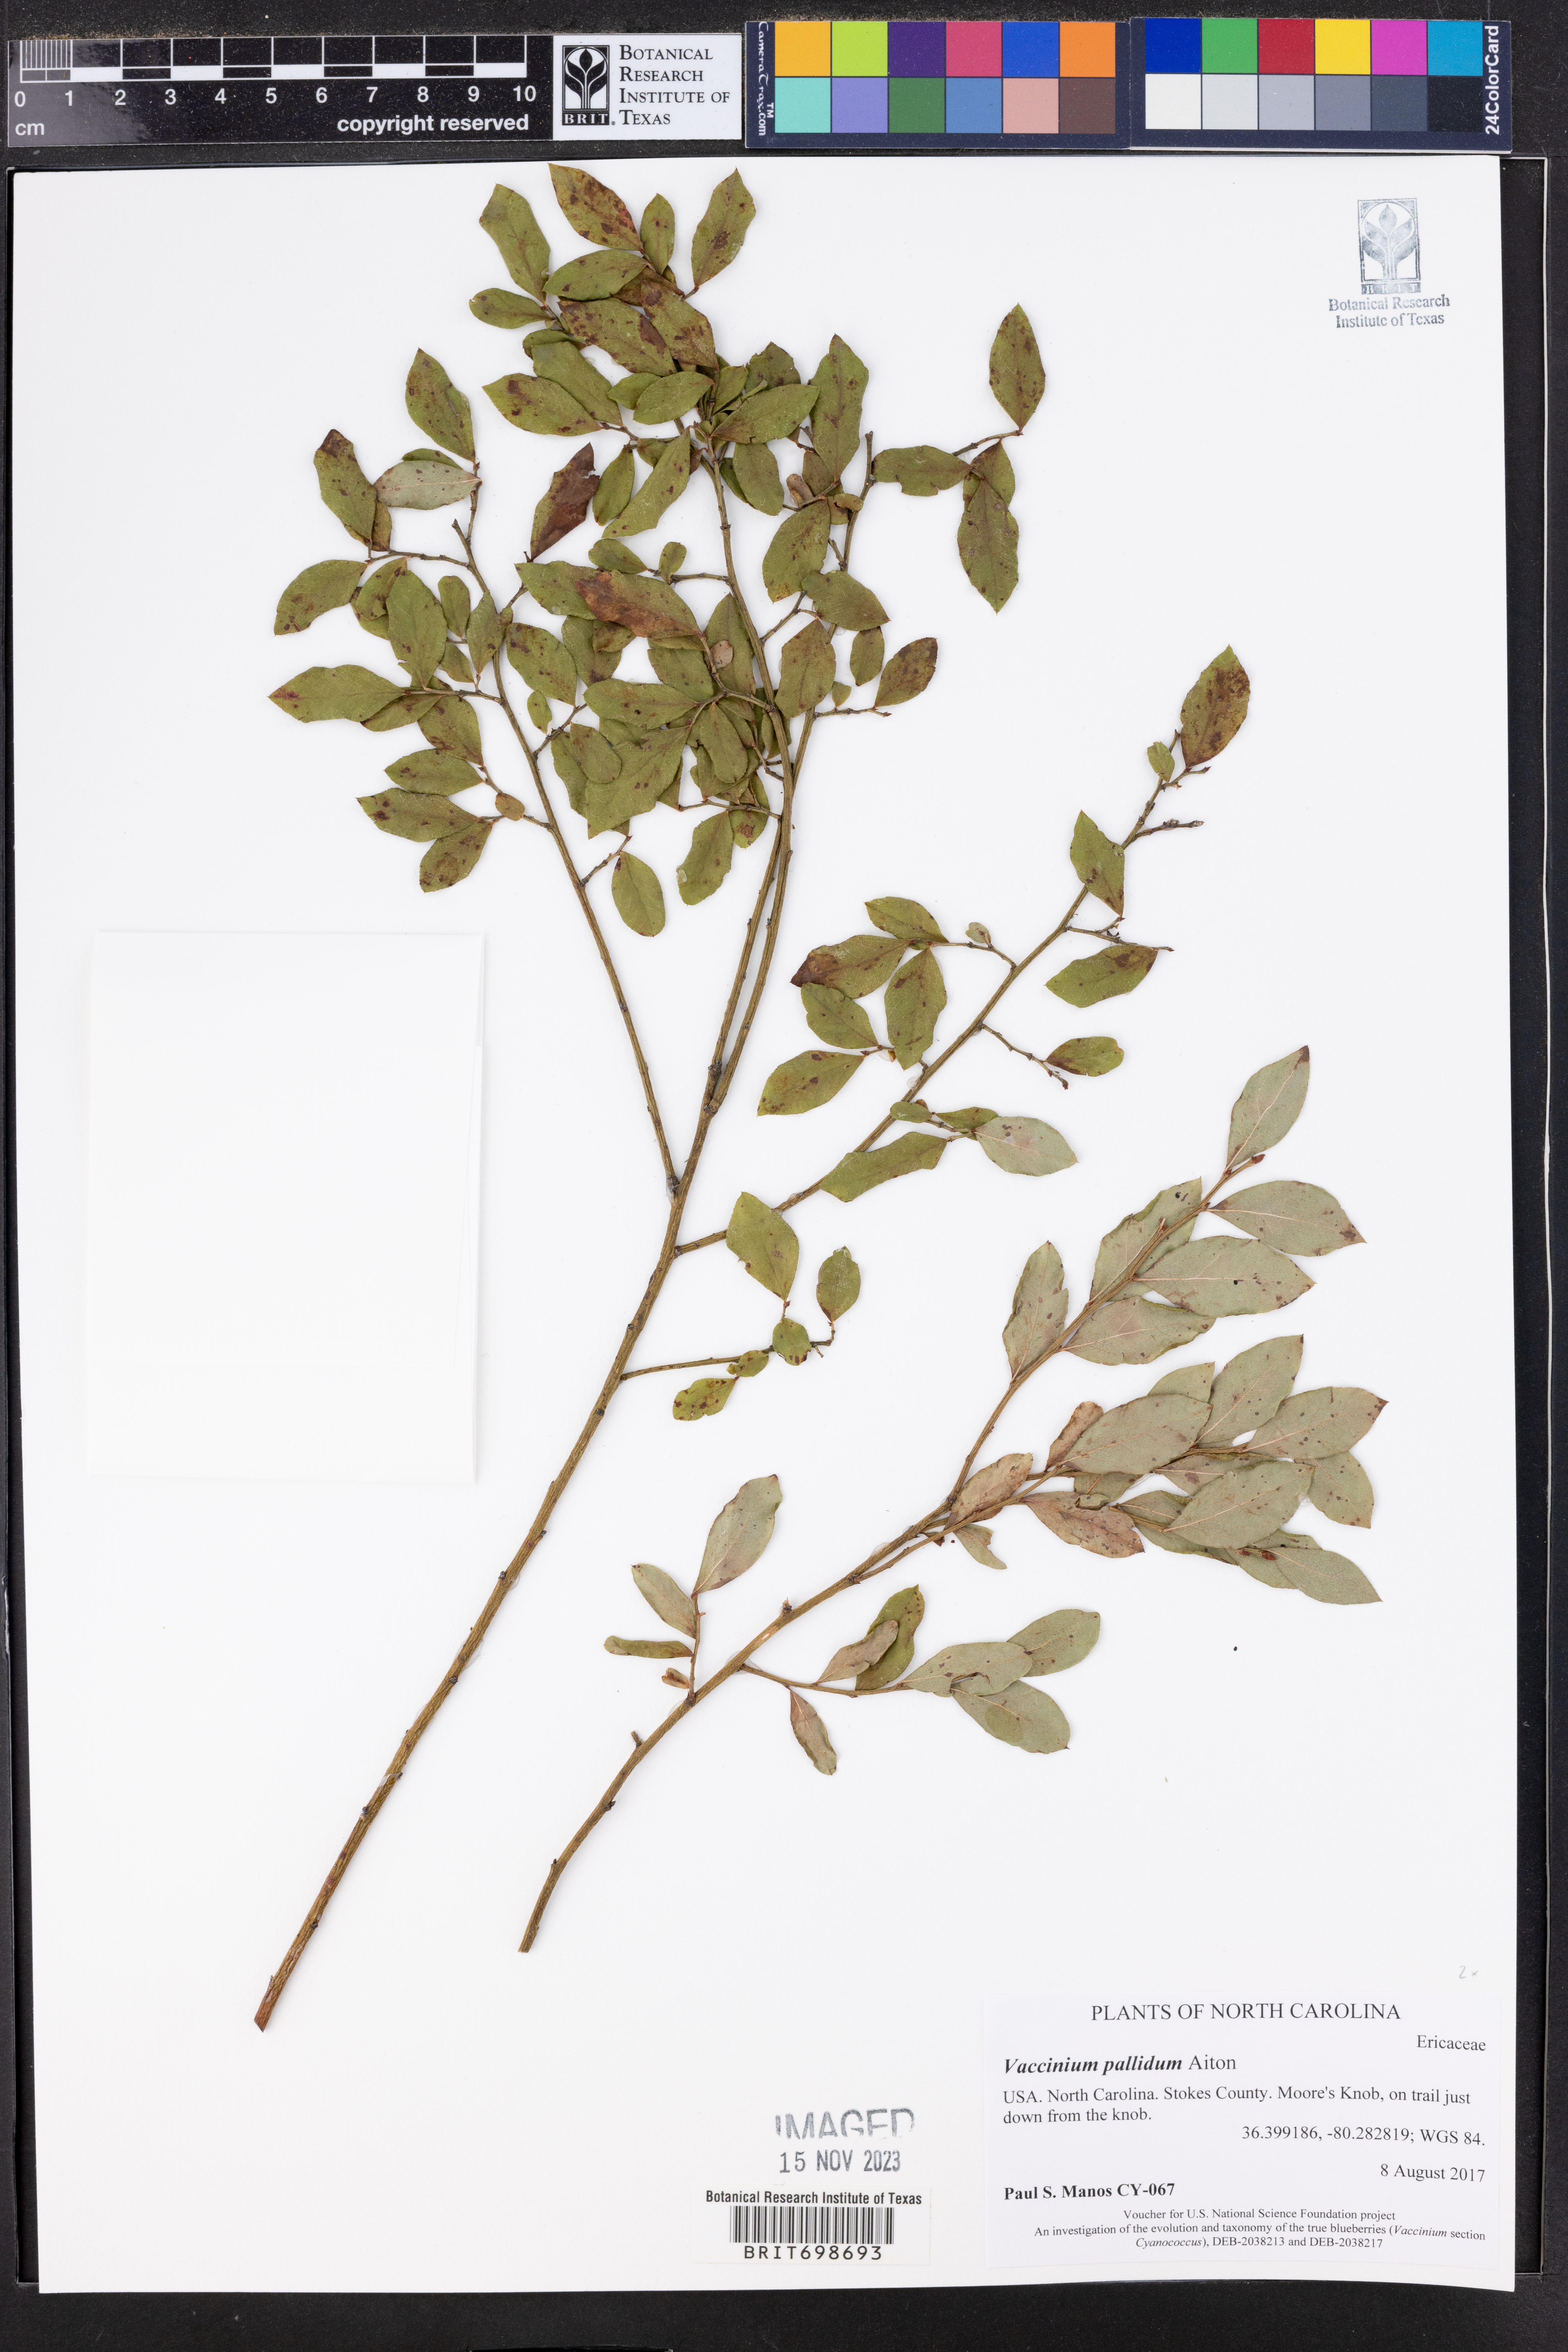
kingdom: Plantae
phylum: Tracheophyta
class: Magnoliopsida
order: Ericales
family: Ericaceae
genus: Vaccinium
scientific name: Vaccinium pallidum
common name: Blue ridge blueberry
